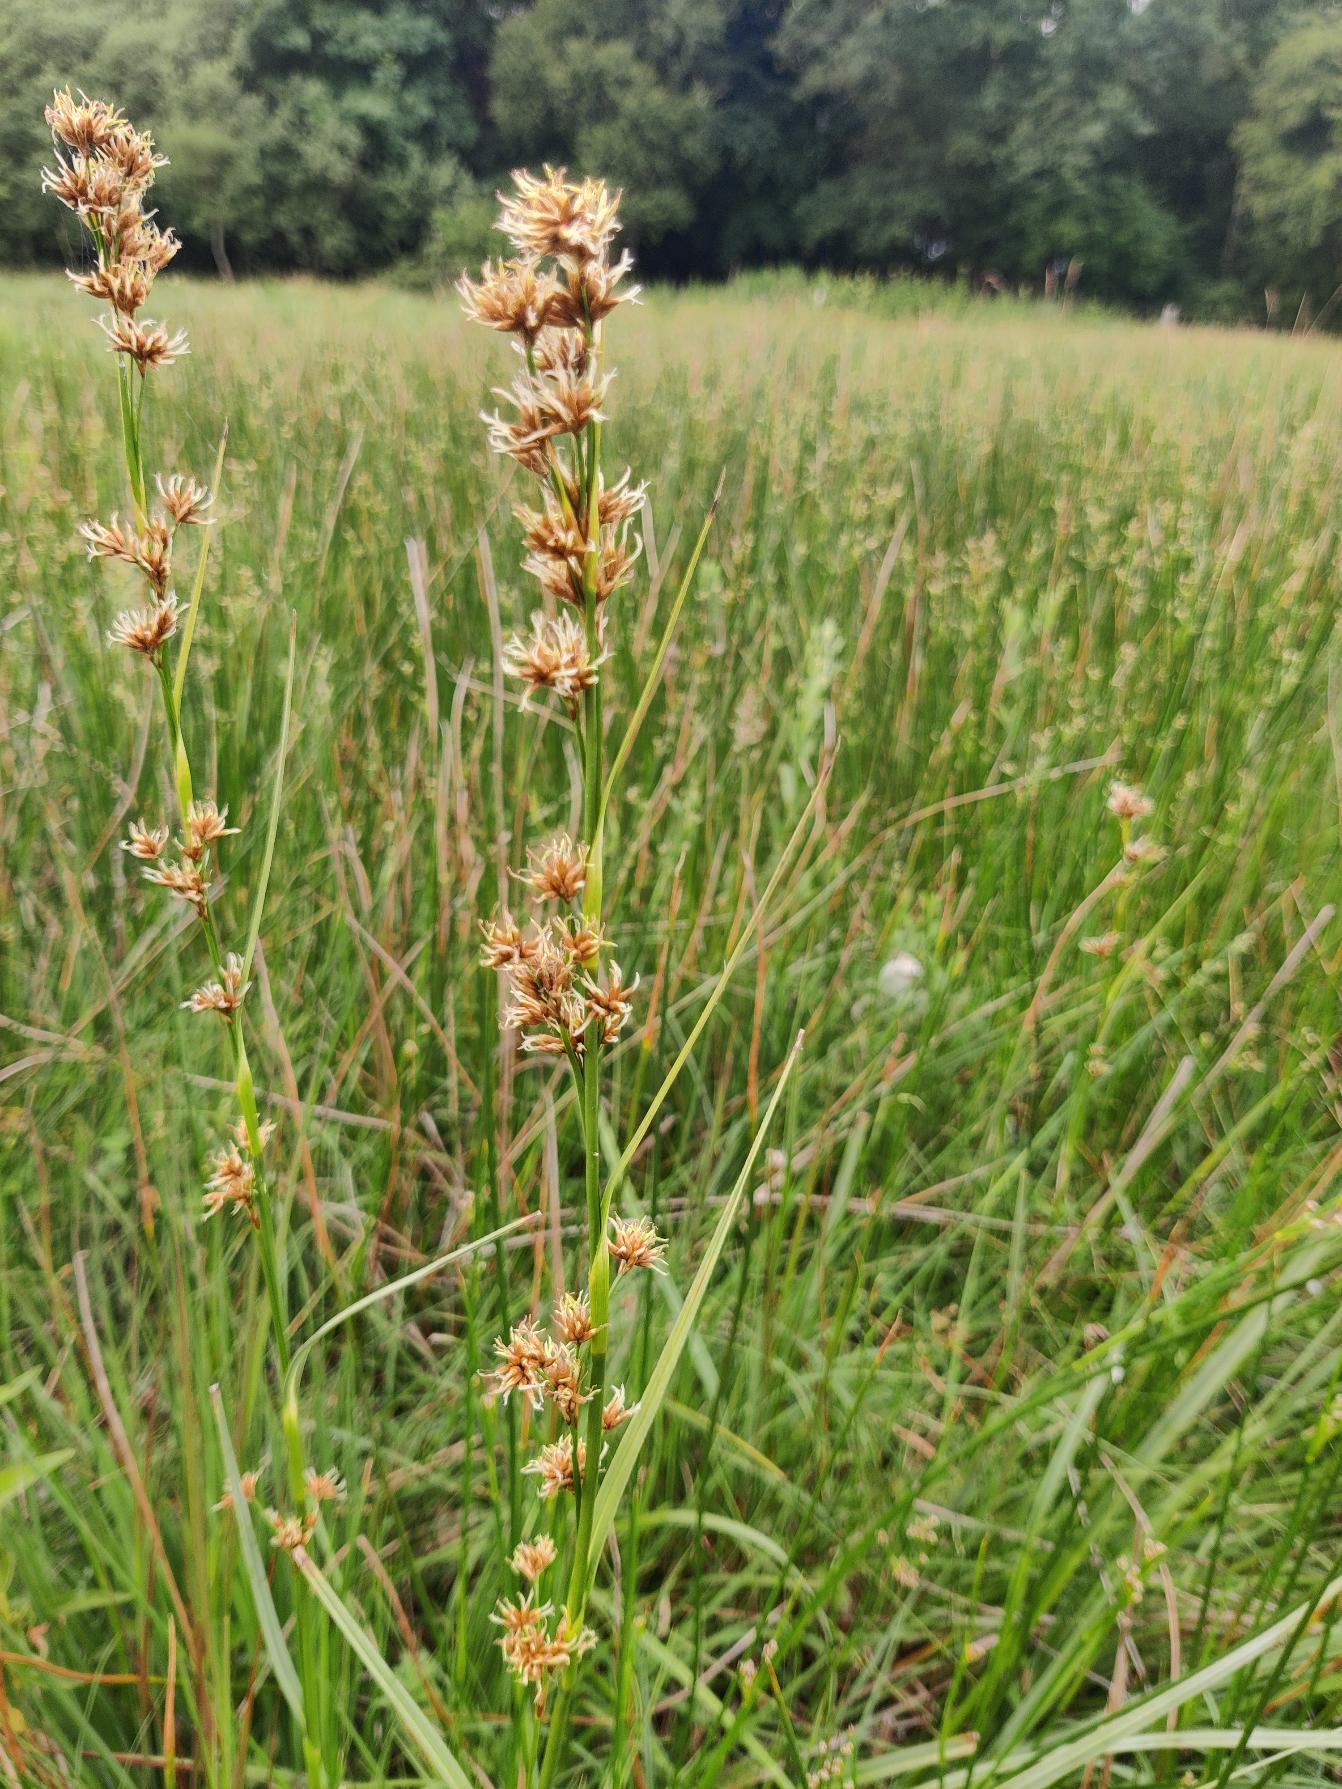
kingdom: Plantae
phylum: Tracheophyta
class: Liliopsida
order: Poales
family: Cyperaceae
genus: Cladium
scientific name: Cladium mariscus
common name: Hvas avneknippe
